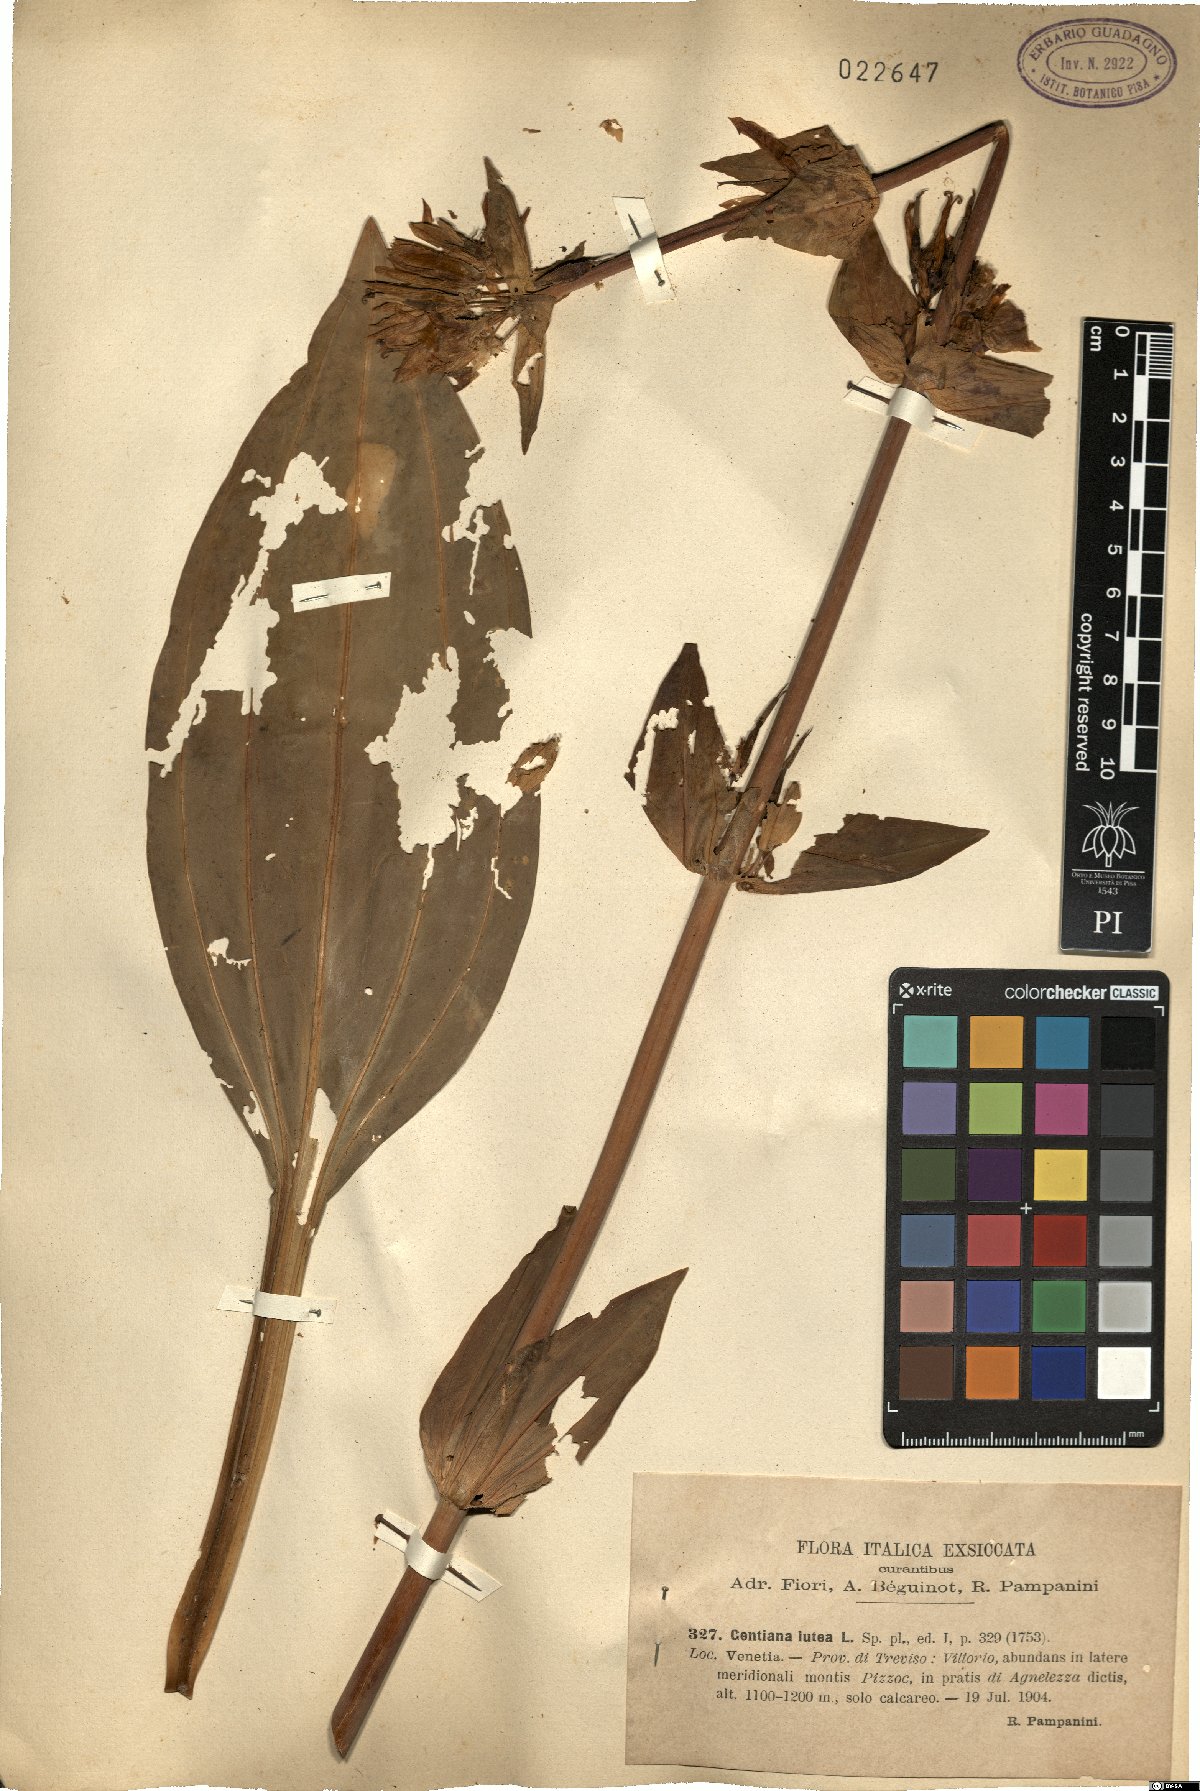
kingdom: Plantae
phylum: Tracheophyta
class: Magnoliopsida
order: Gentianales
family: Gentianaceae
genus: Gentiana
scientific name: Gentiana lutea
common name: Great yellow gentian
